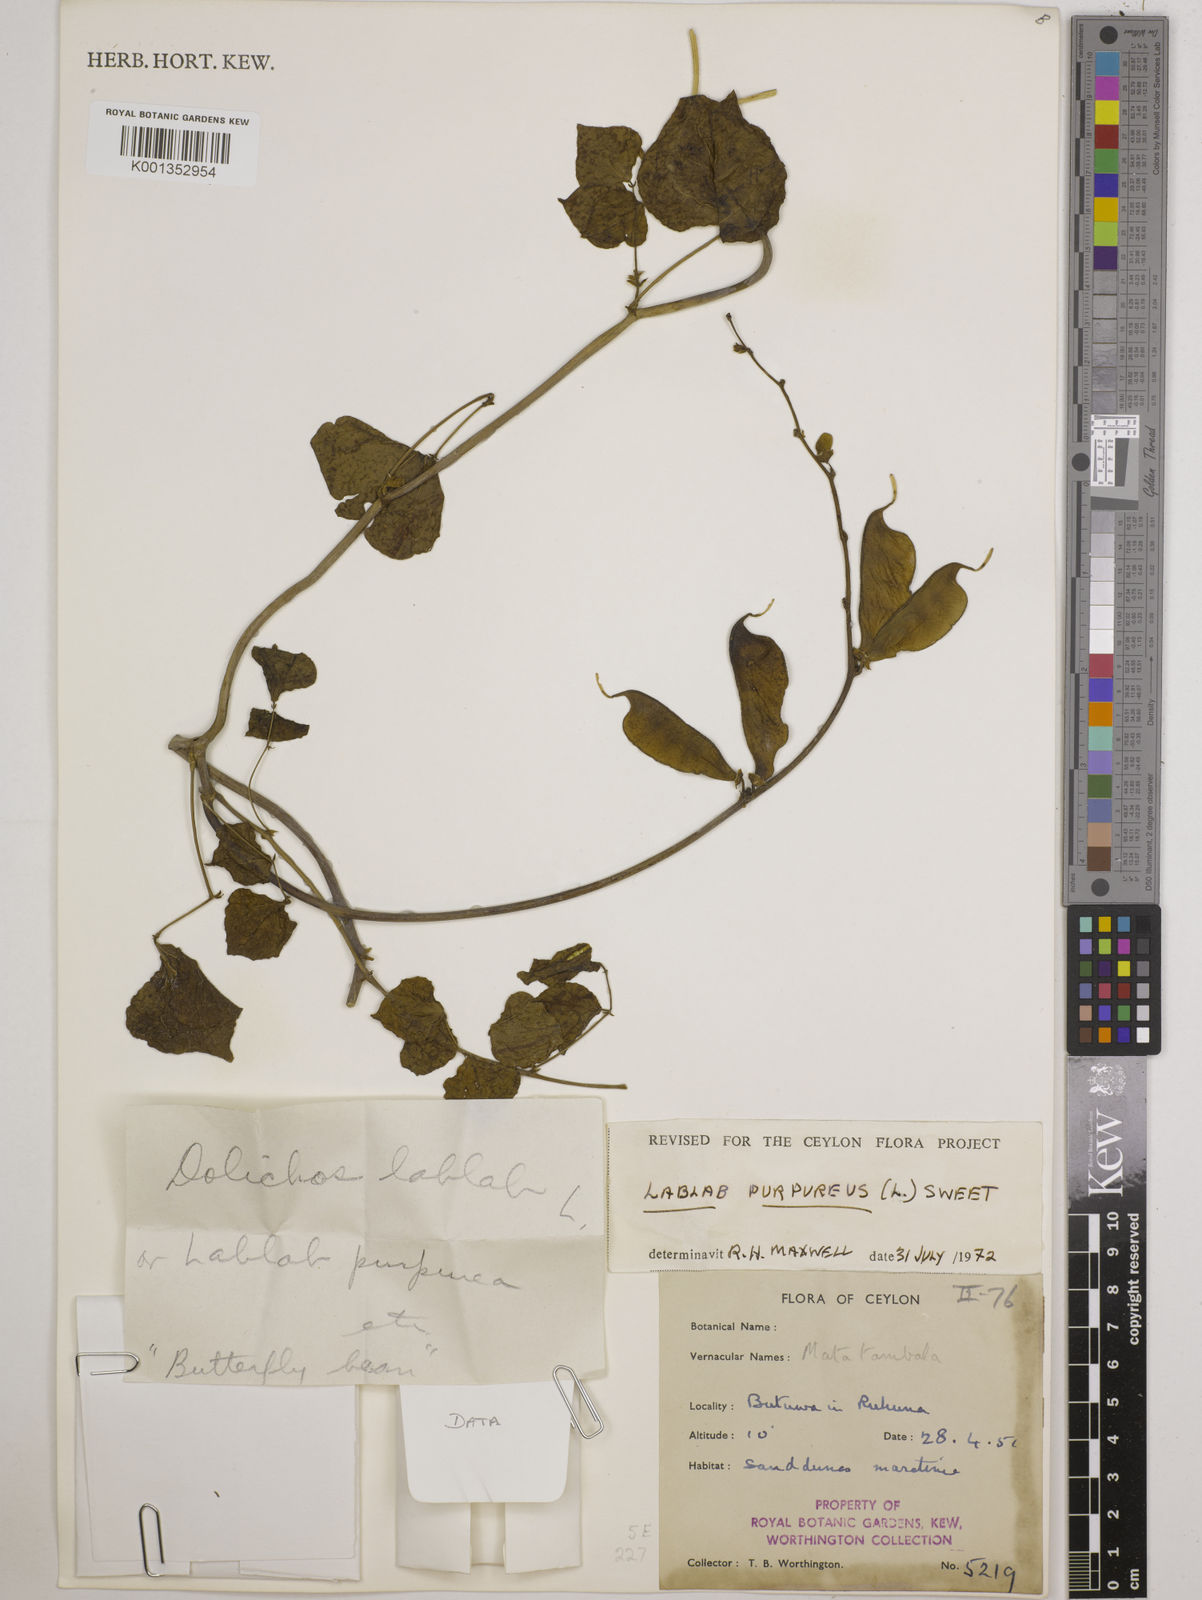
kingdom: Plantae
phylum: Tracheophyta
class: Magnoliopsida
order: Fabales
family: Fabaceae
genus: Lablab
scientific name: Lablab purpureus
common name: Lablab-bean
